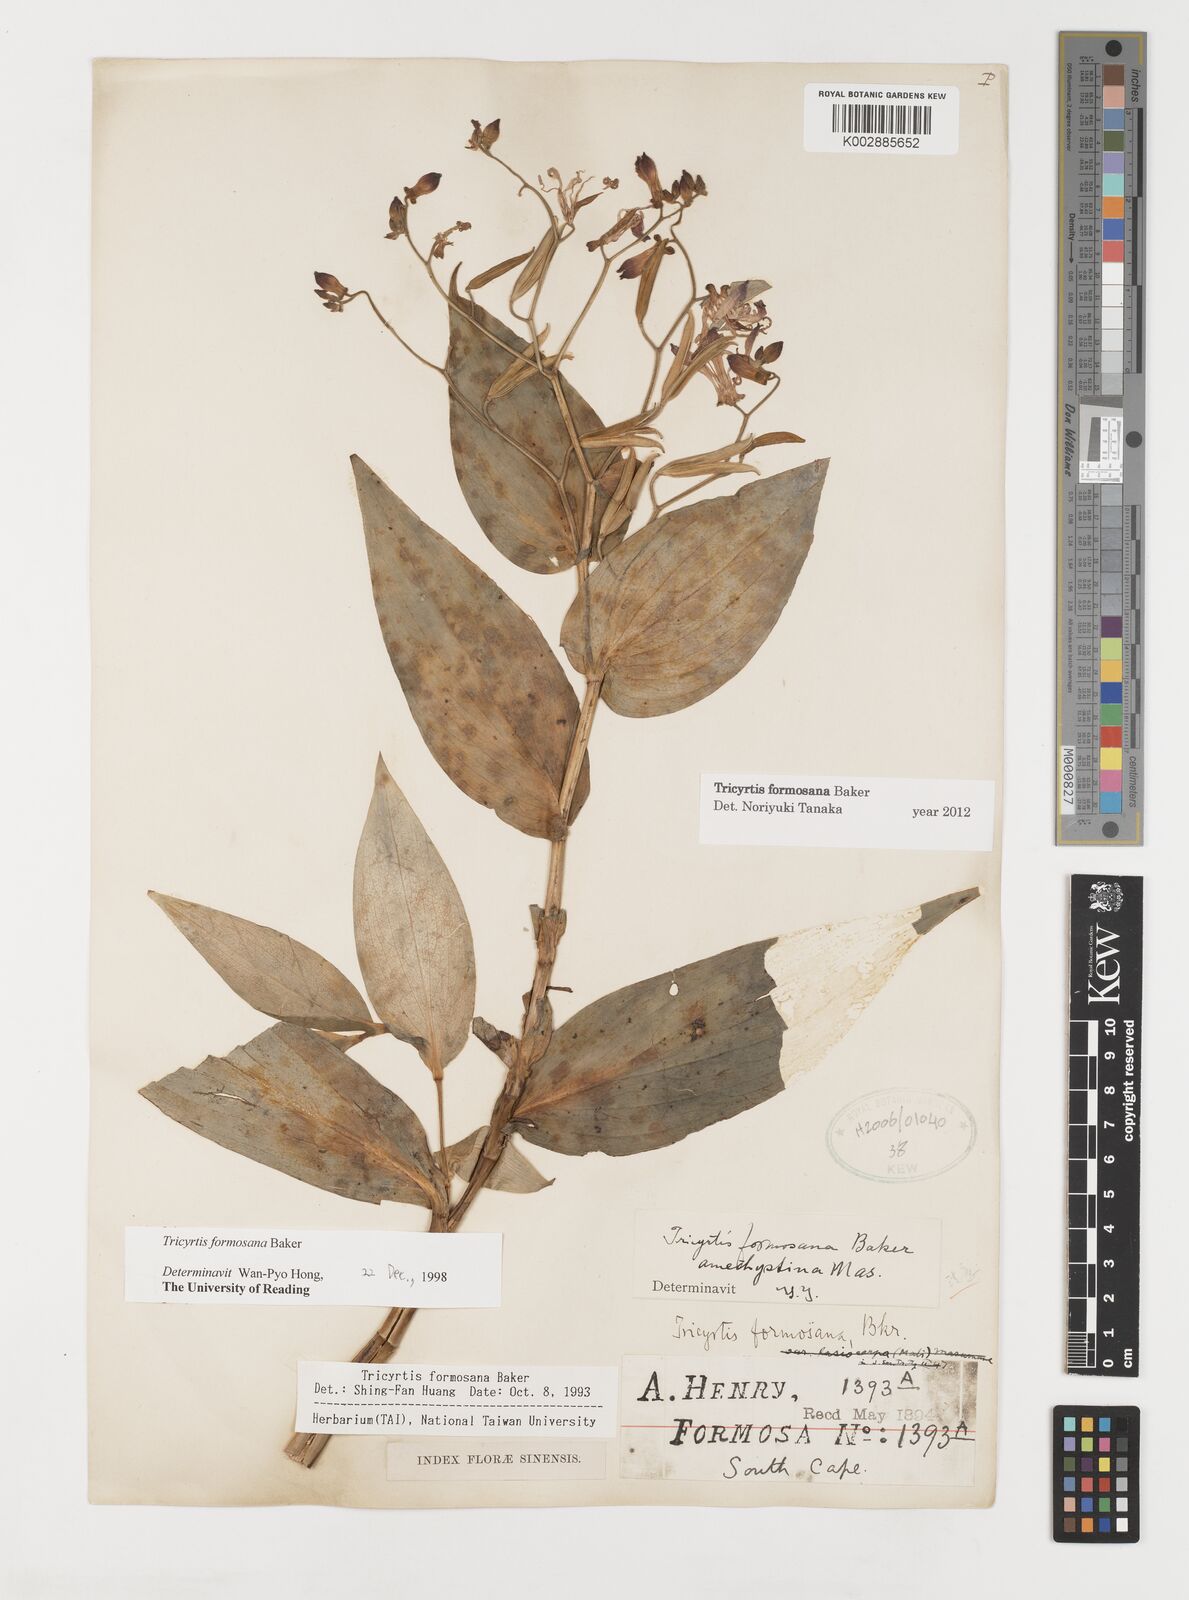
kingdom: Plantae
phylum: Tracheophyta
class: Liliopsida
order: Liliales
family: Liliaceae
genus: Tricyrtis
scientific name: Tricyrtis formosana
